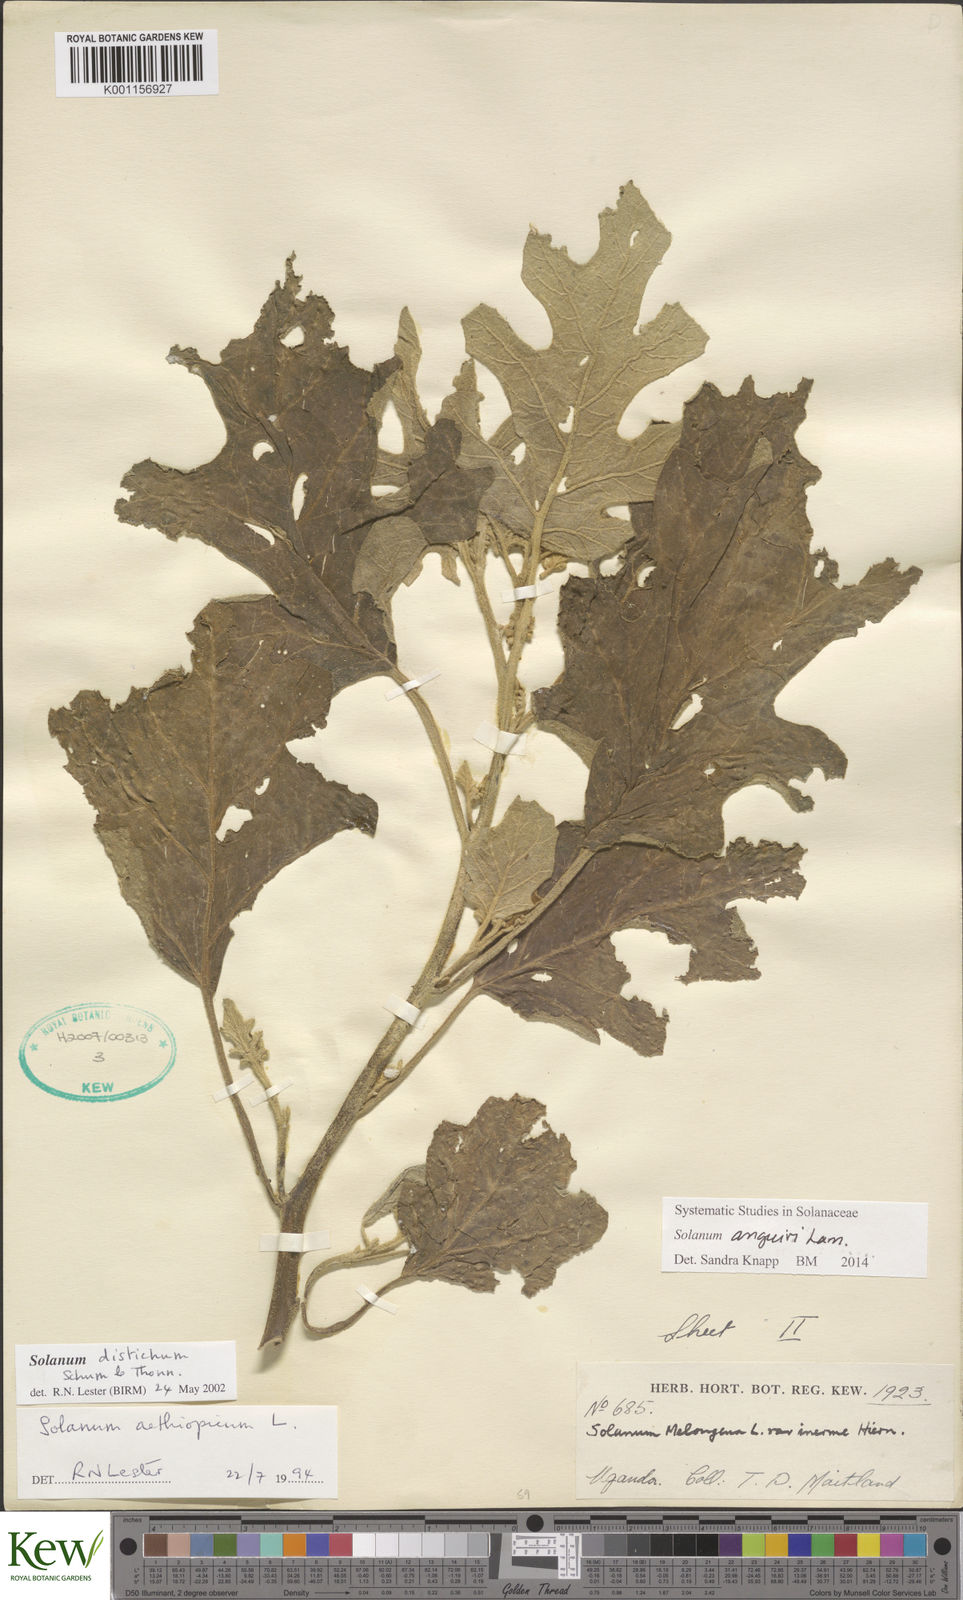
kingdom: Plantae
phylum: Tracheophyta
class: Magnoliopsida
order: Solanales
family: Solanaceae
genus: Solanum
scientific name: Solanum anguivi
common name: Forest bitterberry
